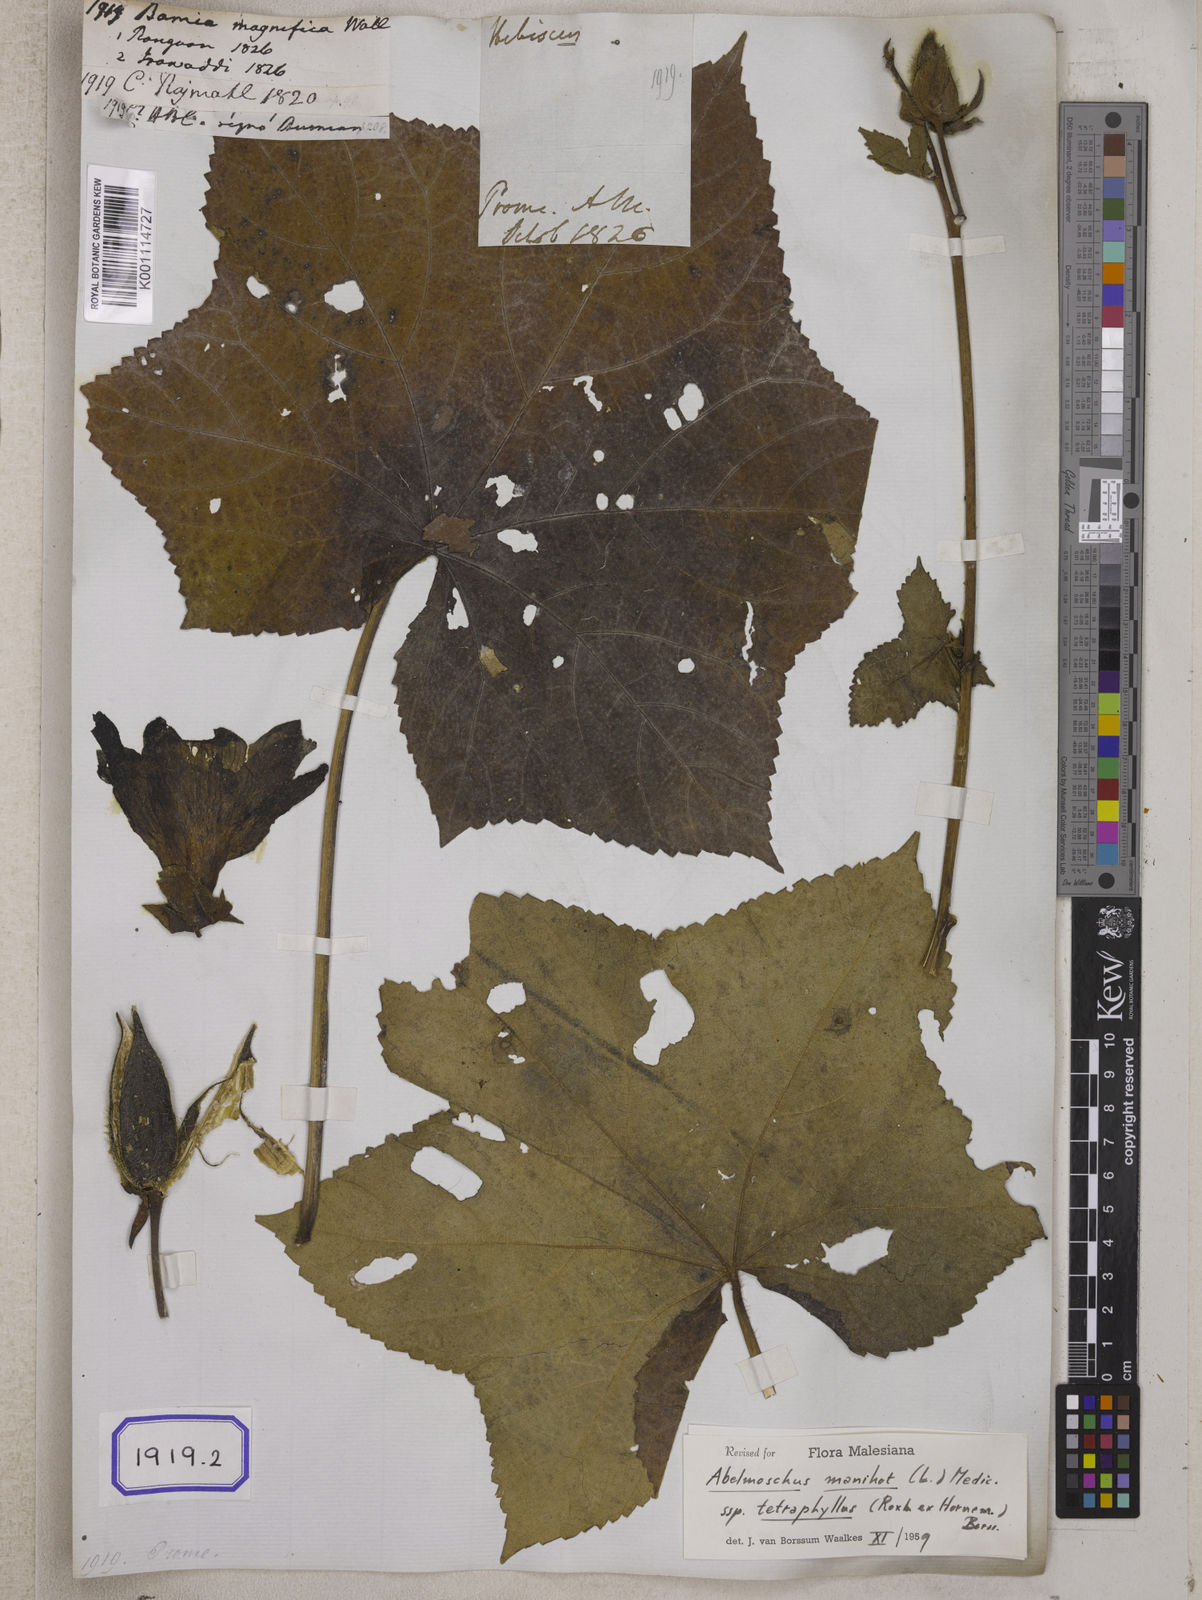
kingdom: Plantae
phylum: Tracheophyta
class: Magnoliopsida
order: Malvales
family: Malvaceae
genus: Bamia
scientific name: Bamia
